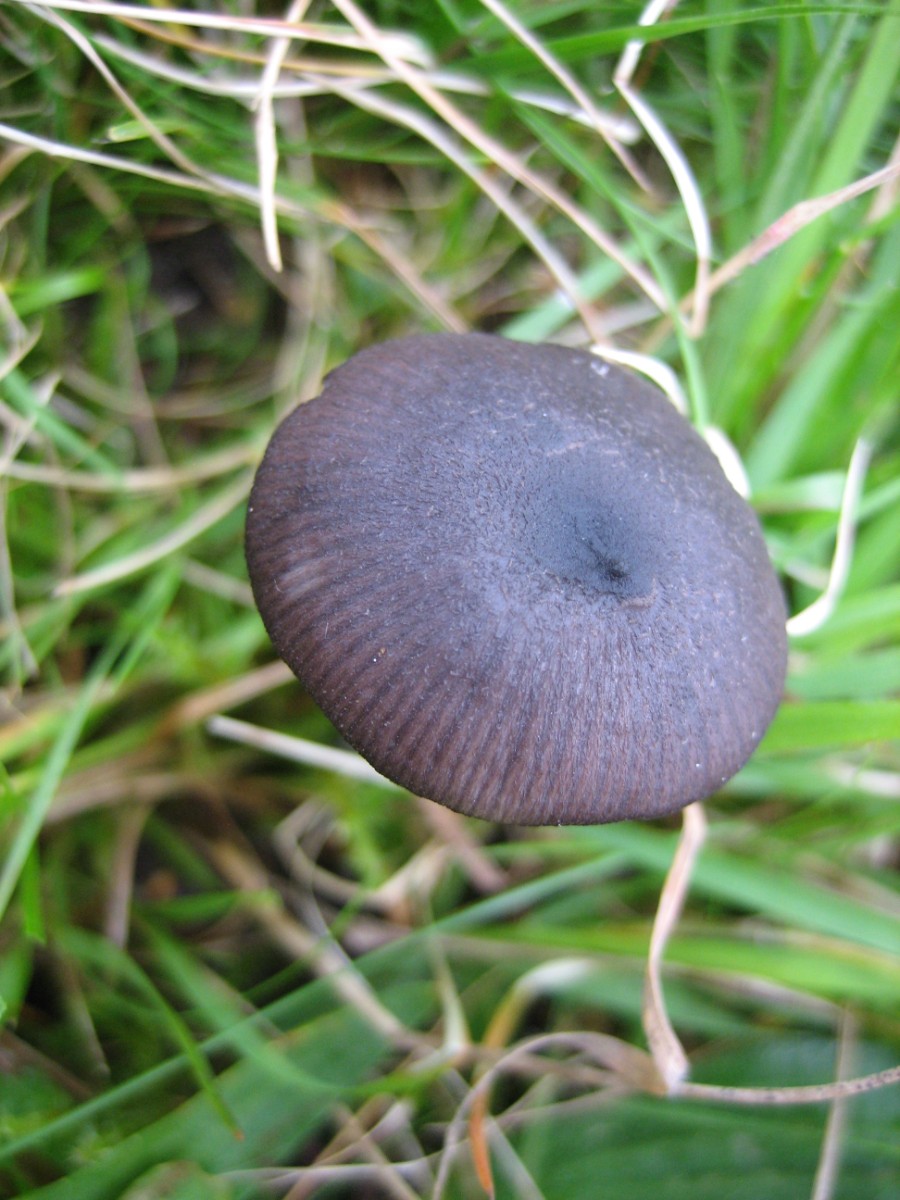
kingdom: Fungi
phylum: Basidiomycota
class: Agaricomycetes
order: Agaricales
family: Entolomataceae
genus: Entoloma
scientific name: Entoloma
